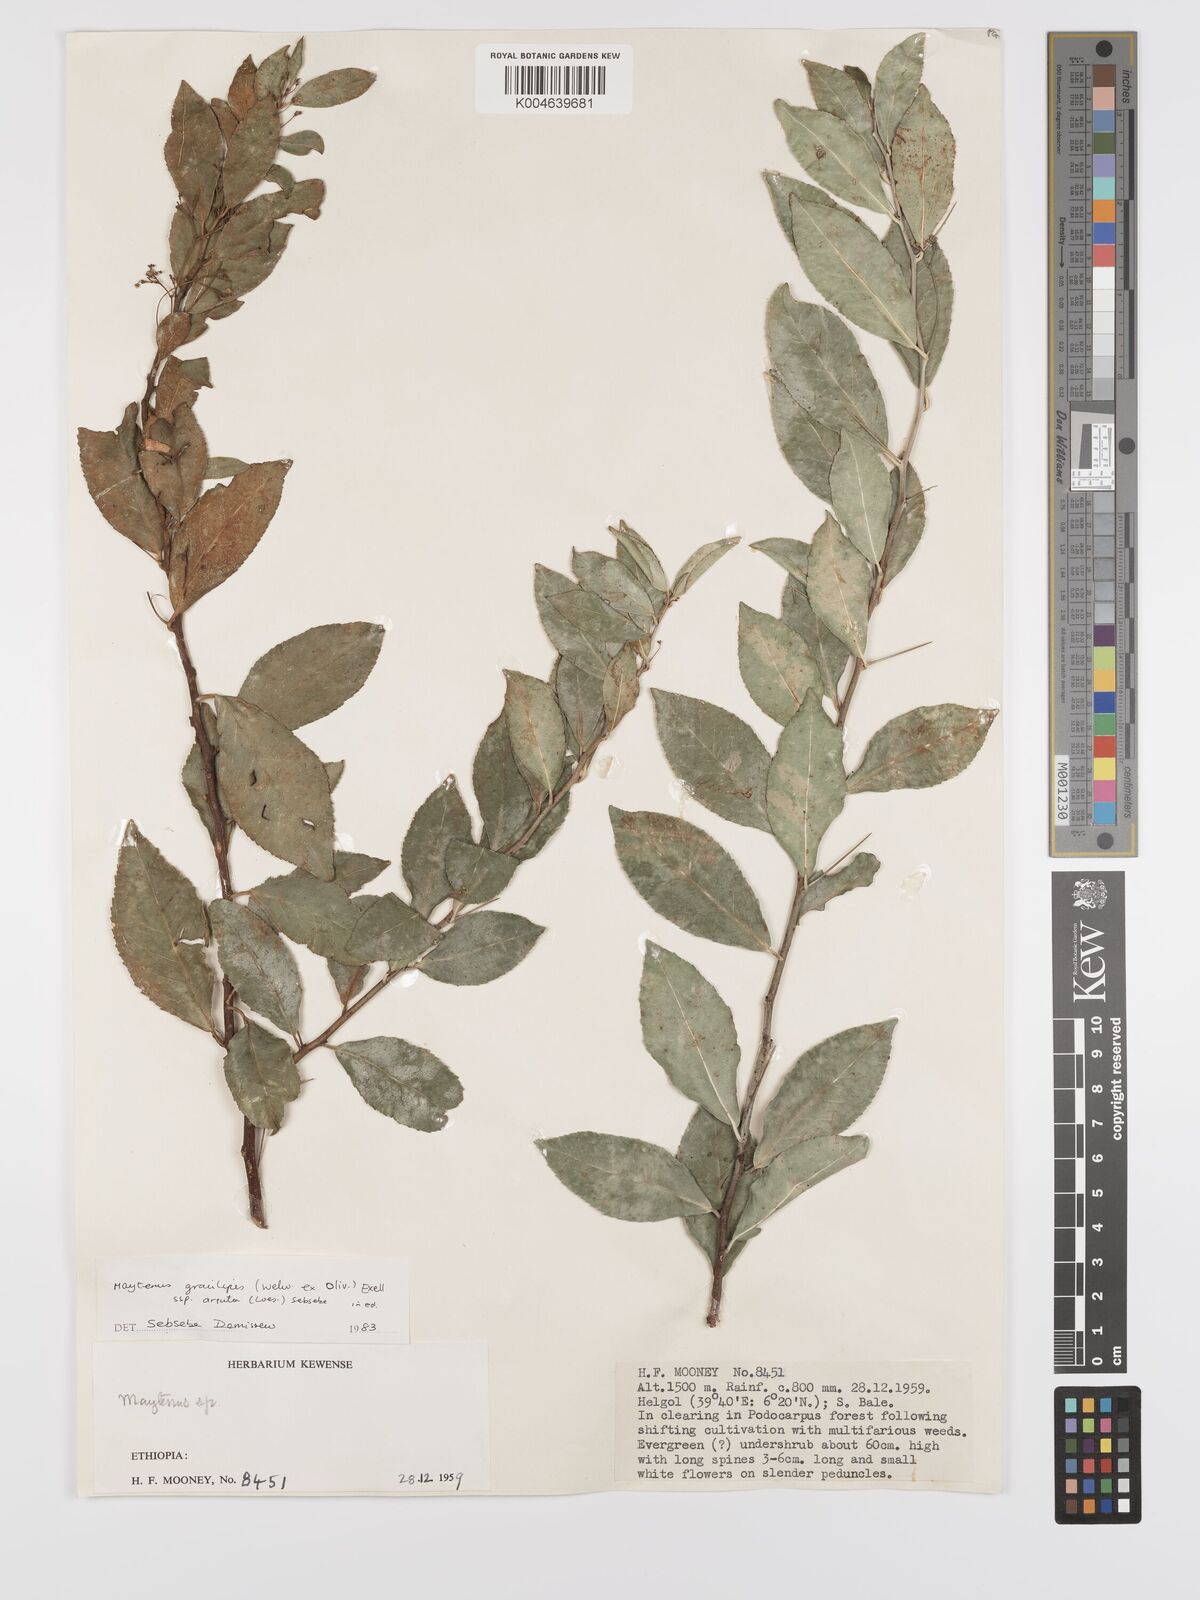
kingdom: Plantae
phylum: Tracheophyta
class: Magnoliopsida
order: Celastrales
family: Celastraceae
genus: Gymnosporia
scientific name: Gymnosporia gracilipes
